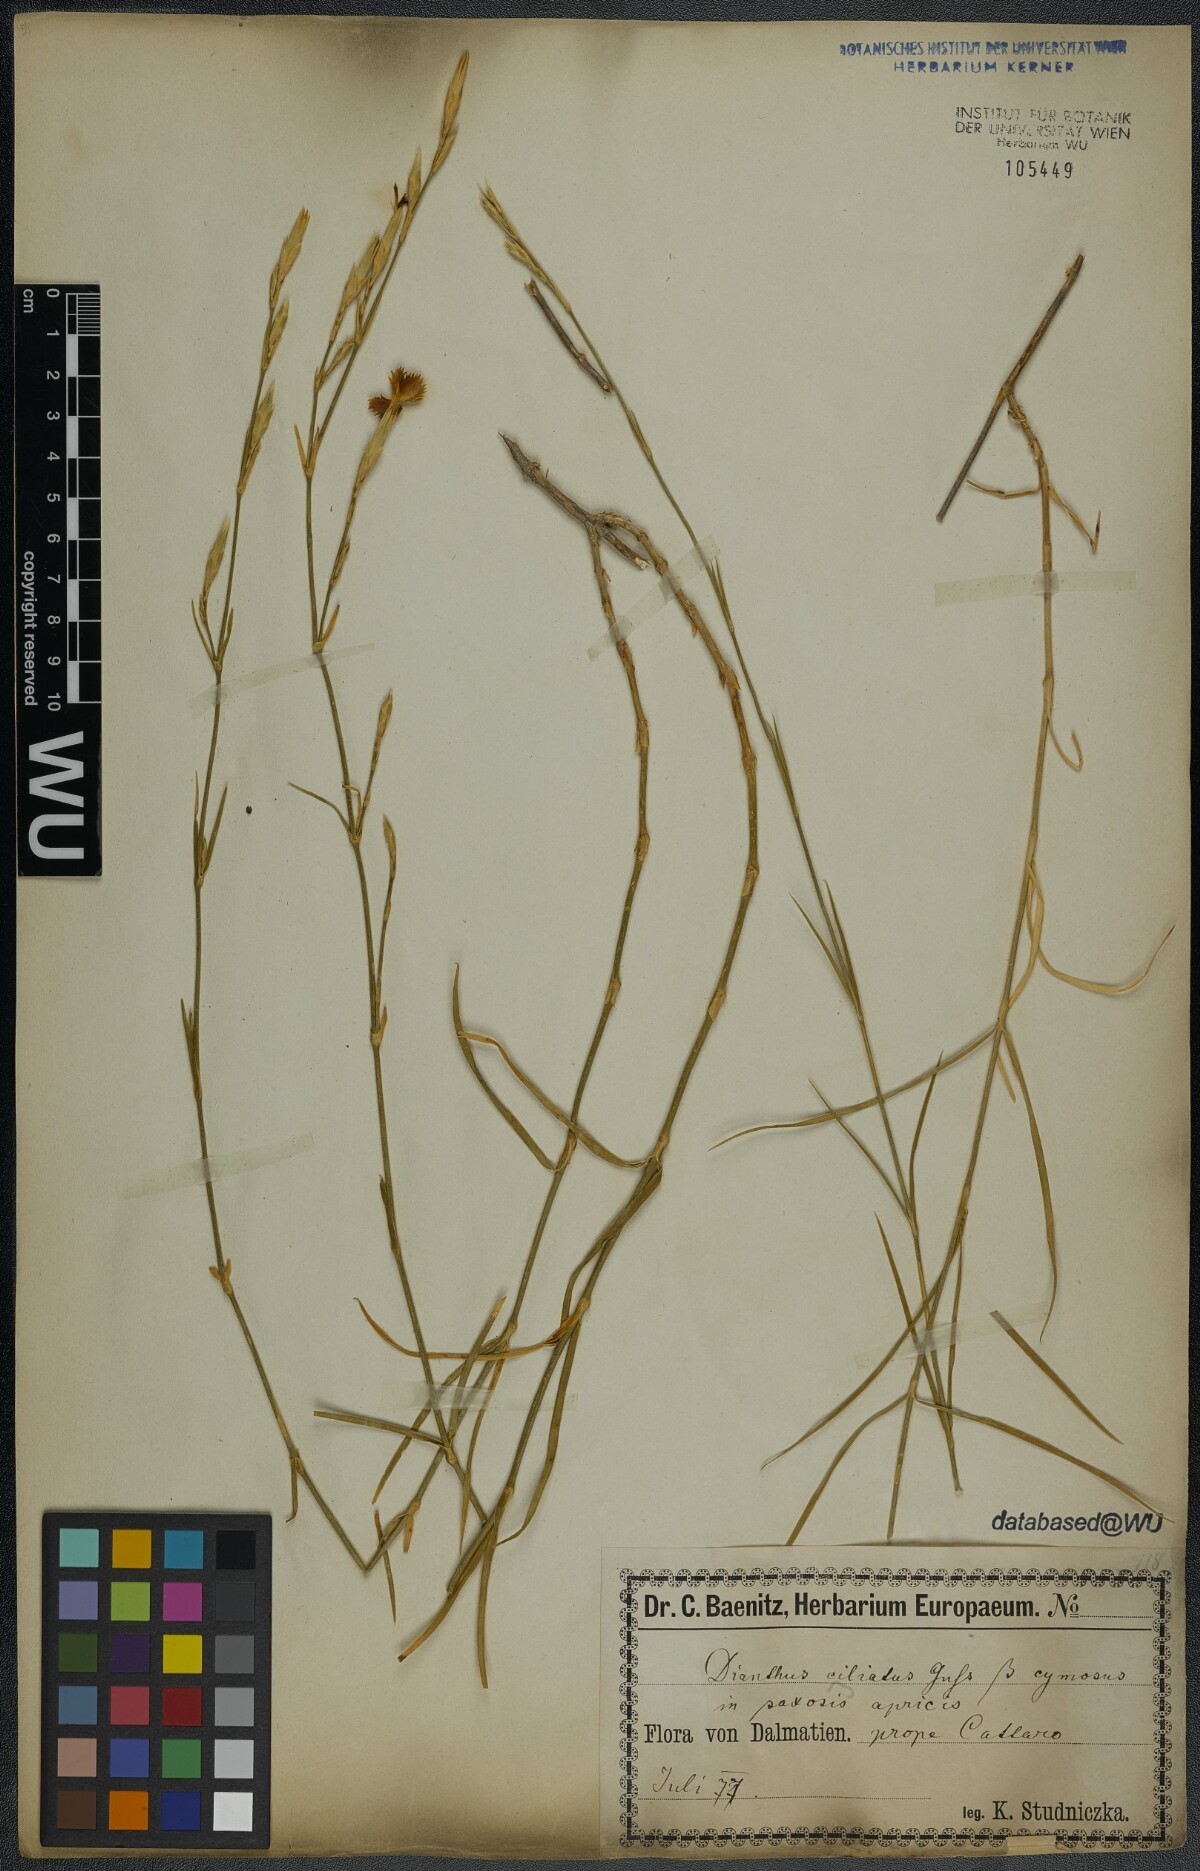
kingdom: Plantae
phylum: Tracheophyta
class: Magnoliopsida
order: Caryophyllales
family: Caryophyllaceae
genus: Dianthus
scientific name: Dianthus ciliatus
